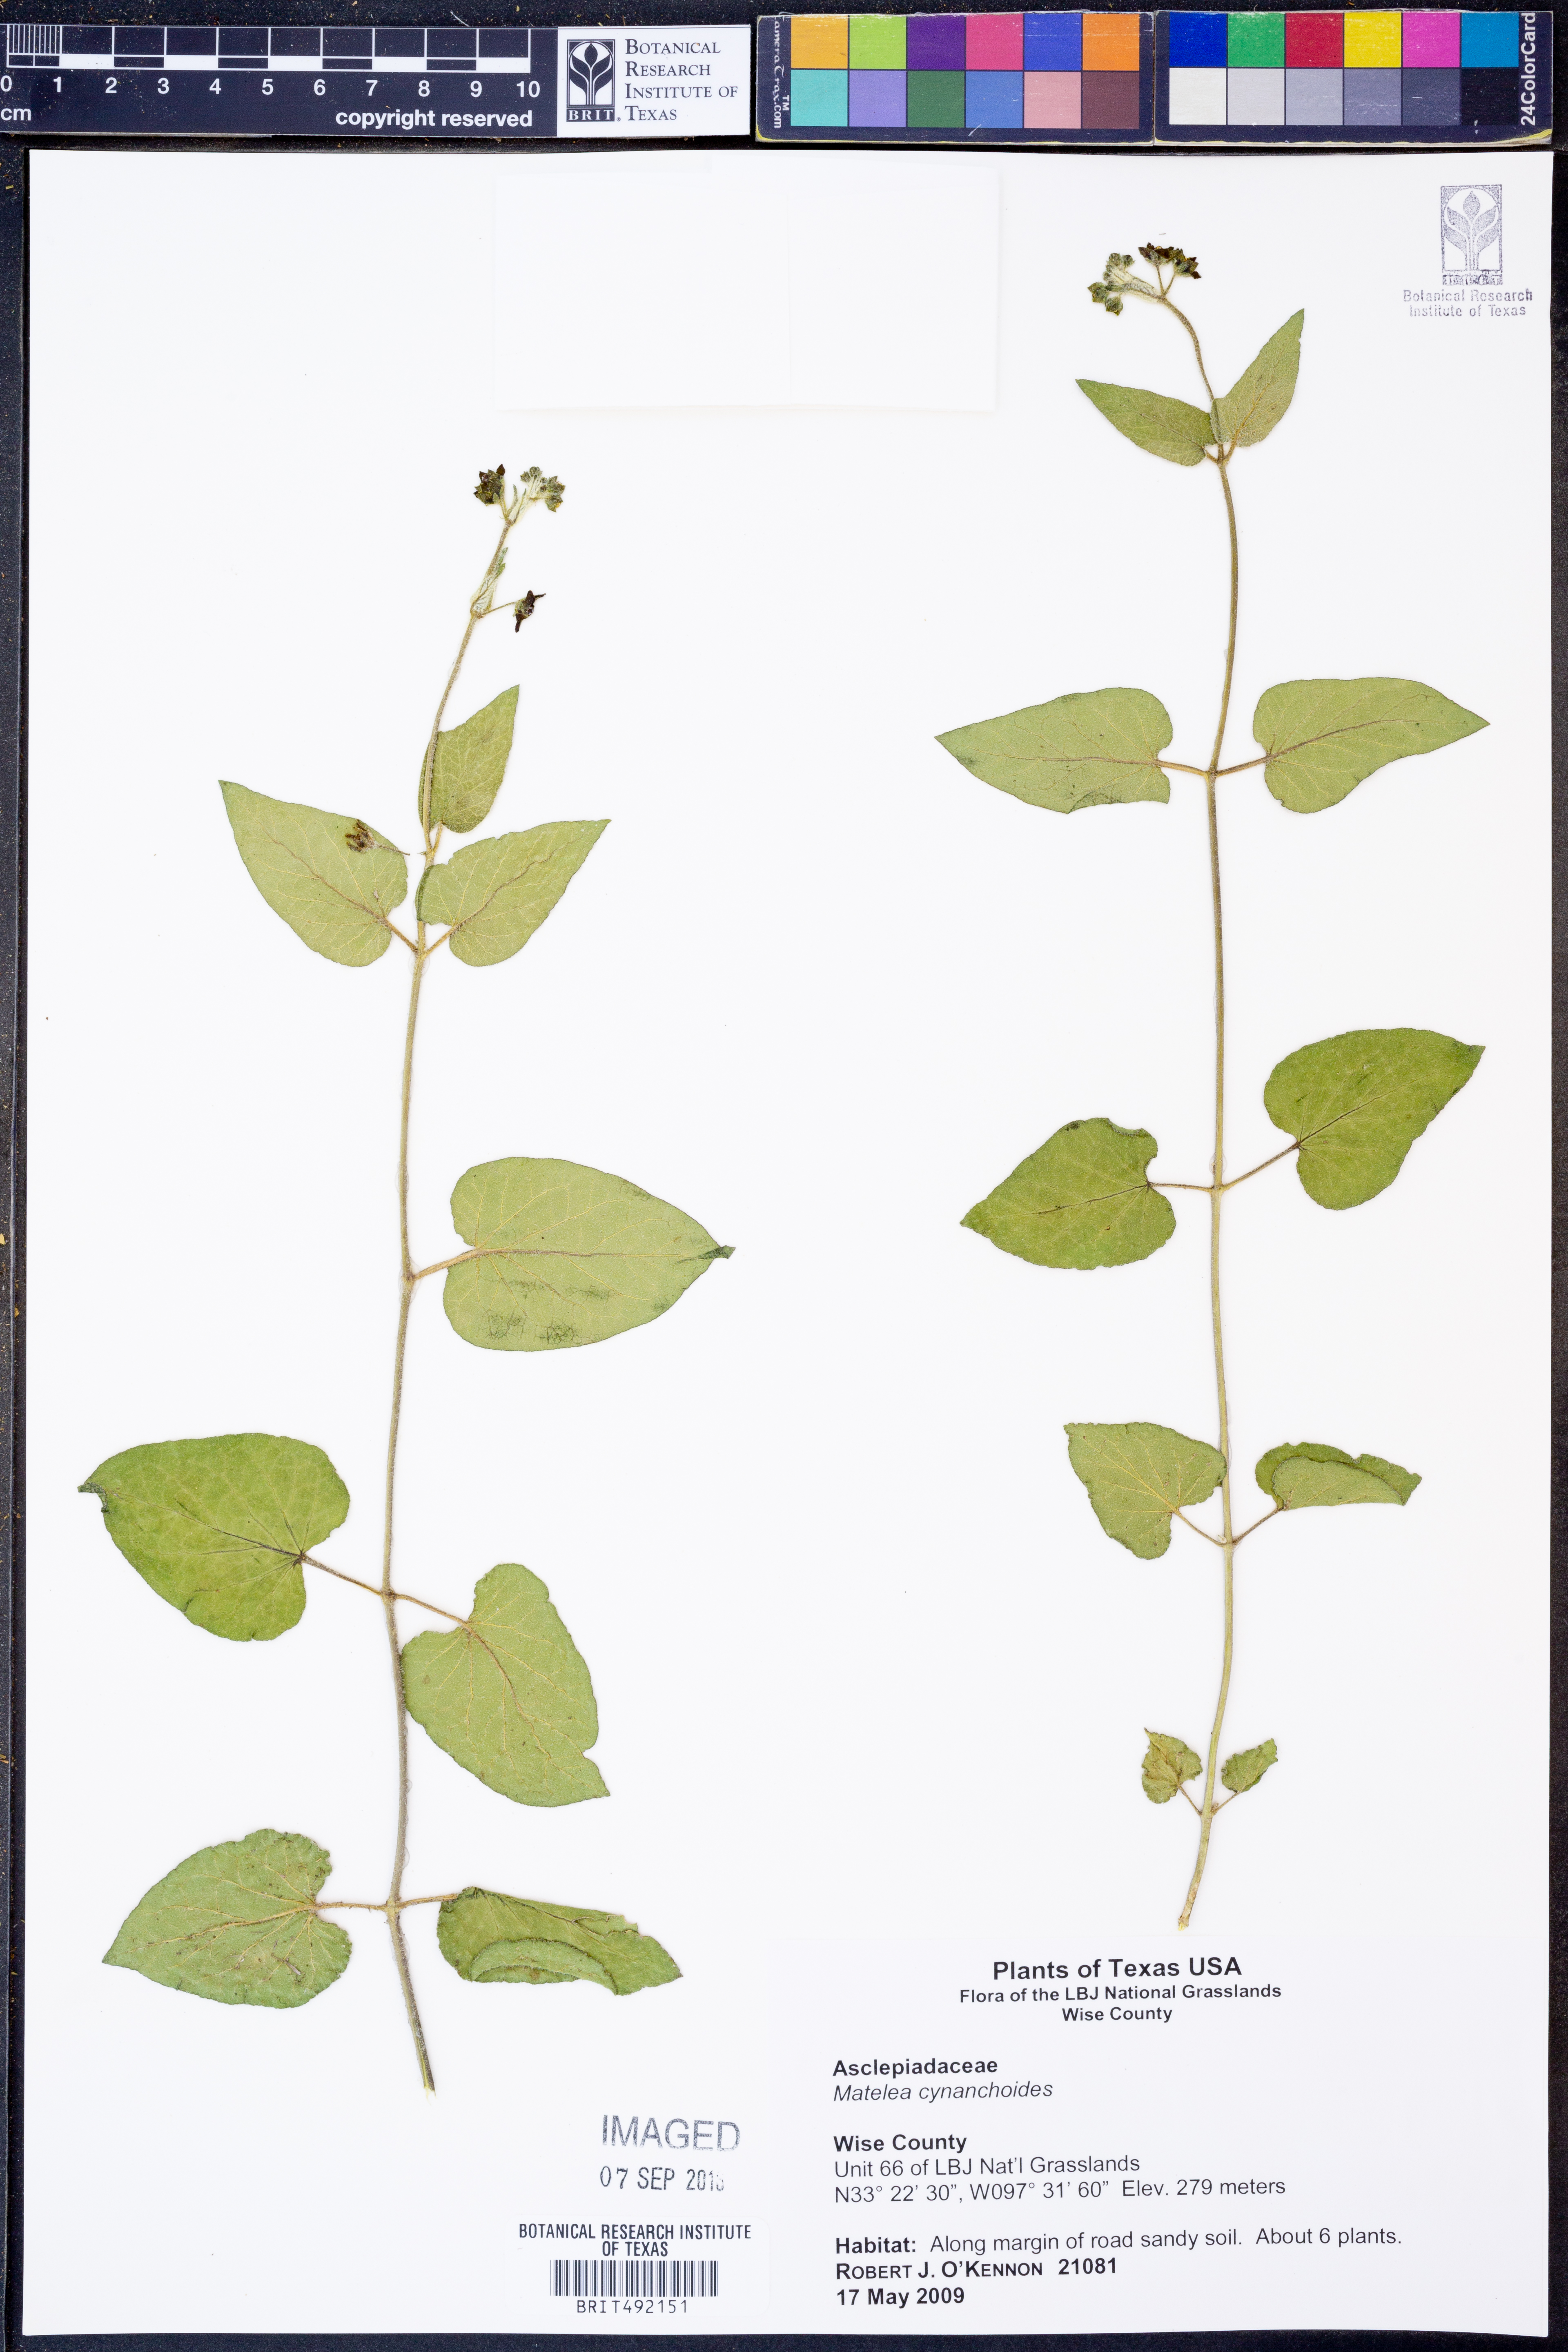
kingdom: Plantae
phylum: Tracheophyta
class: Magnoliopsida
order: Gentianales
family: Apocynaceae
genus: Matelea
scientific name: Matelea cynanchoides
